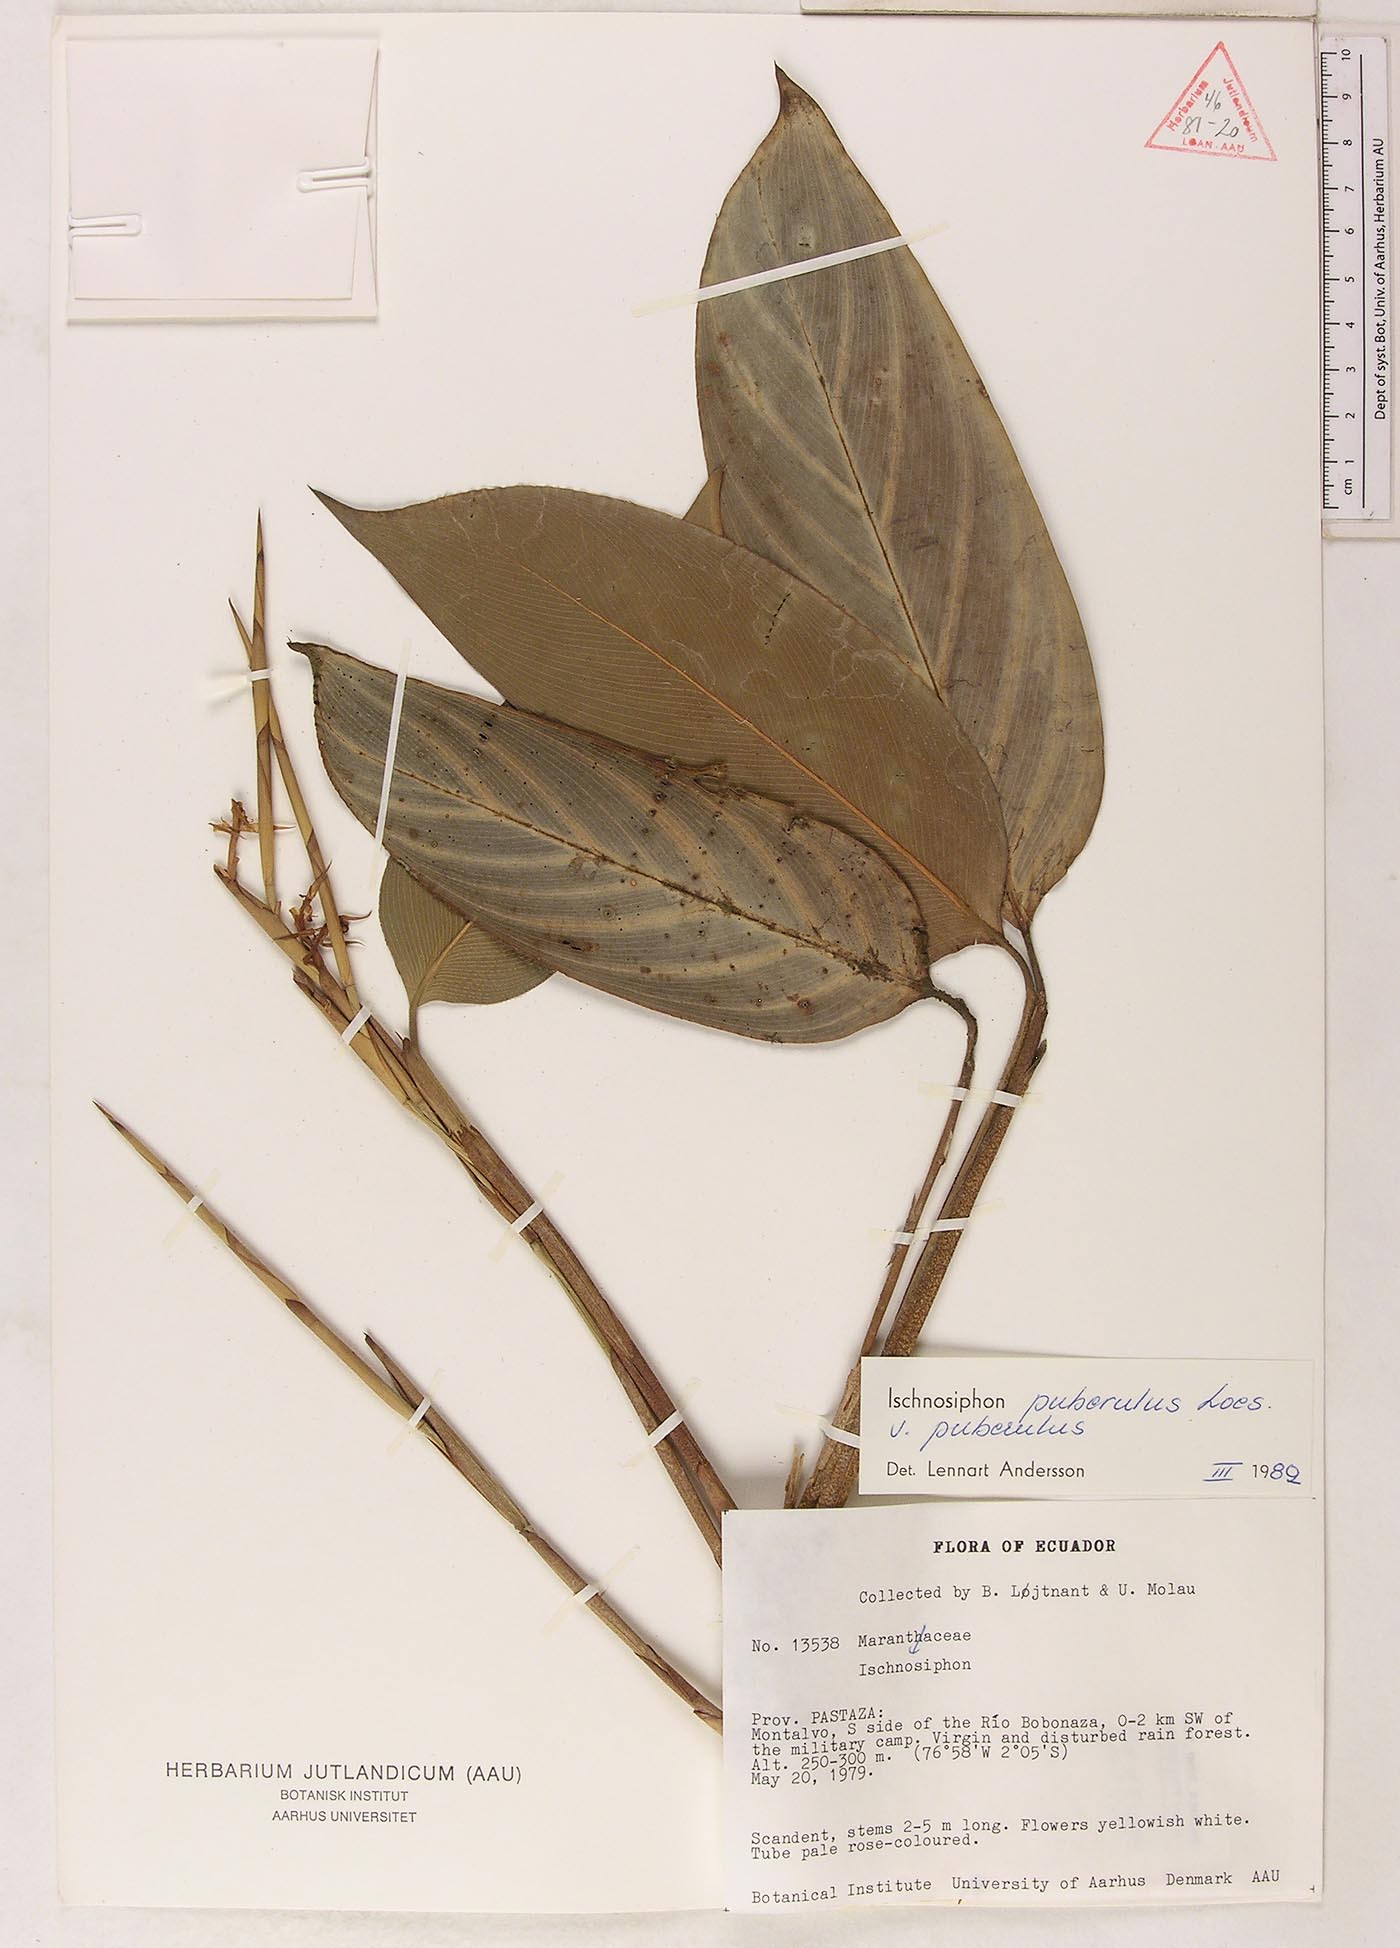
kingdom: Plantae
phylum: Tracheophyta
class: Liliopsida
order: Zingiberales
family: Marantaceae
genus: Ischnosiphon
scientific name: Ischnosiphon puberulus
